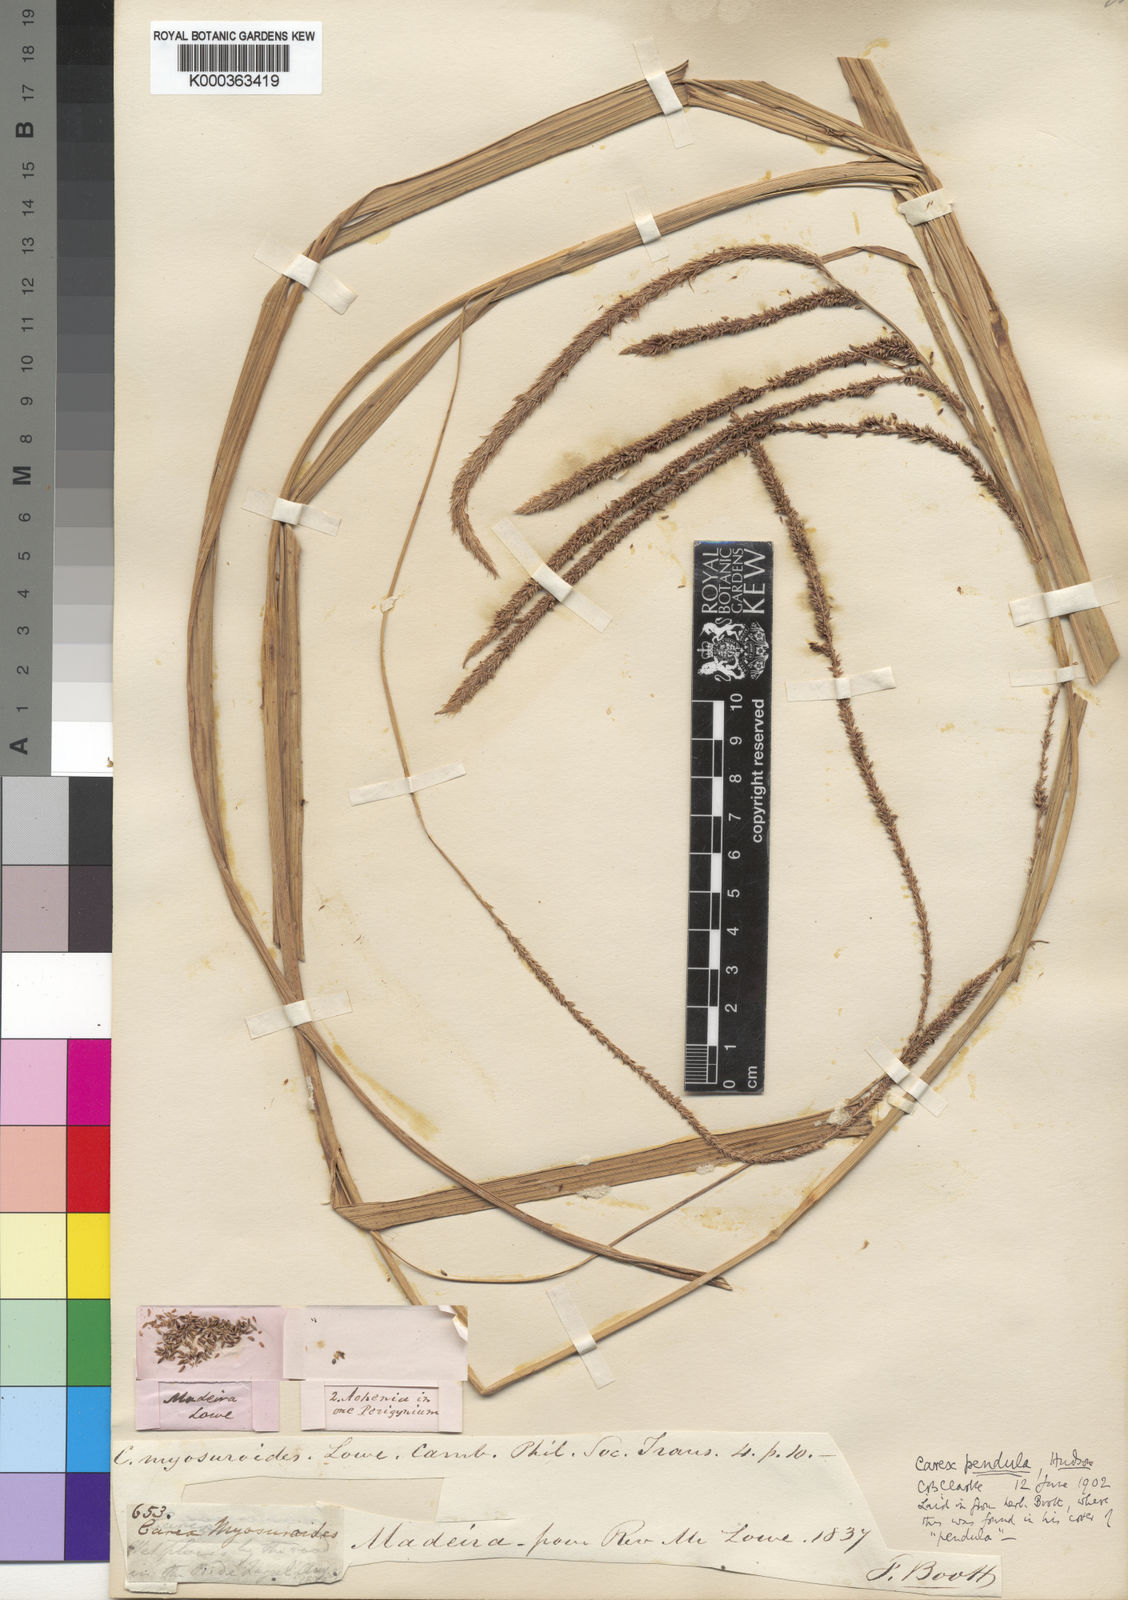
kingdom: Plantae
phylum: Tracheophyta
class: Liliopsida
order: Poales
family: Cyperaceae
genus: Carex
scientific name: Carex pendula
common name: Pendulous sedge
